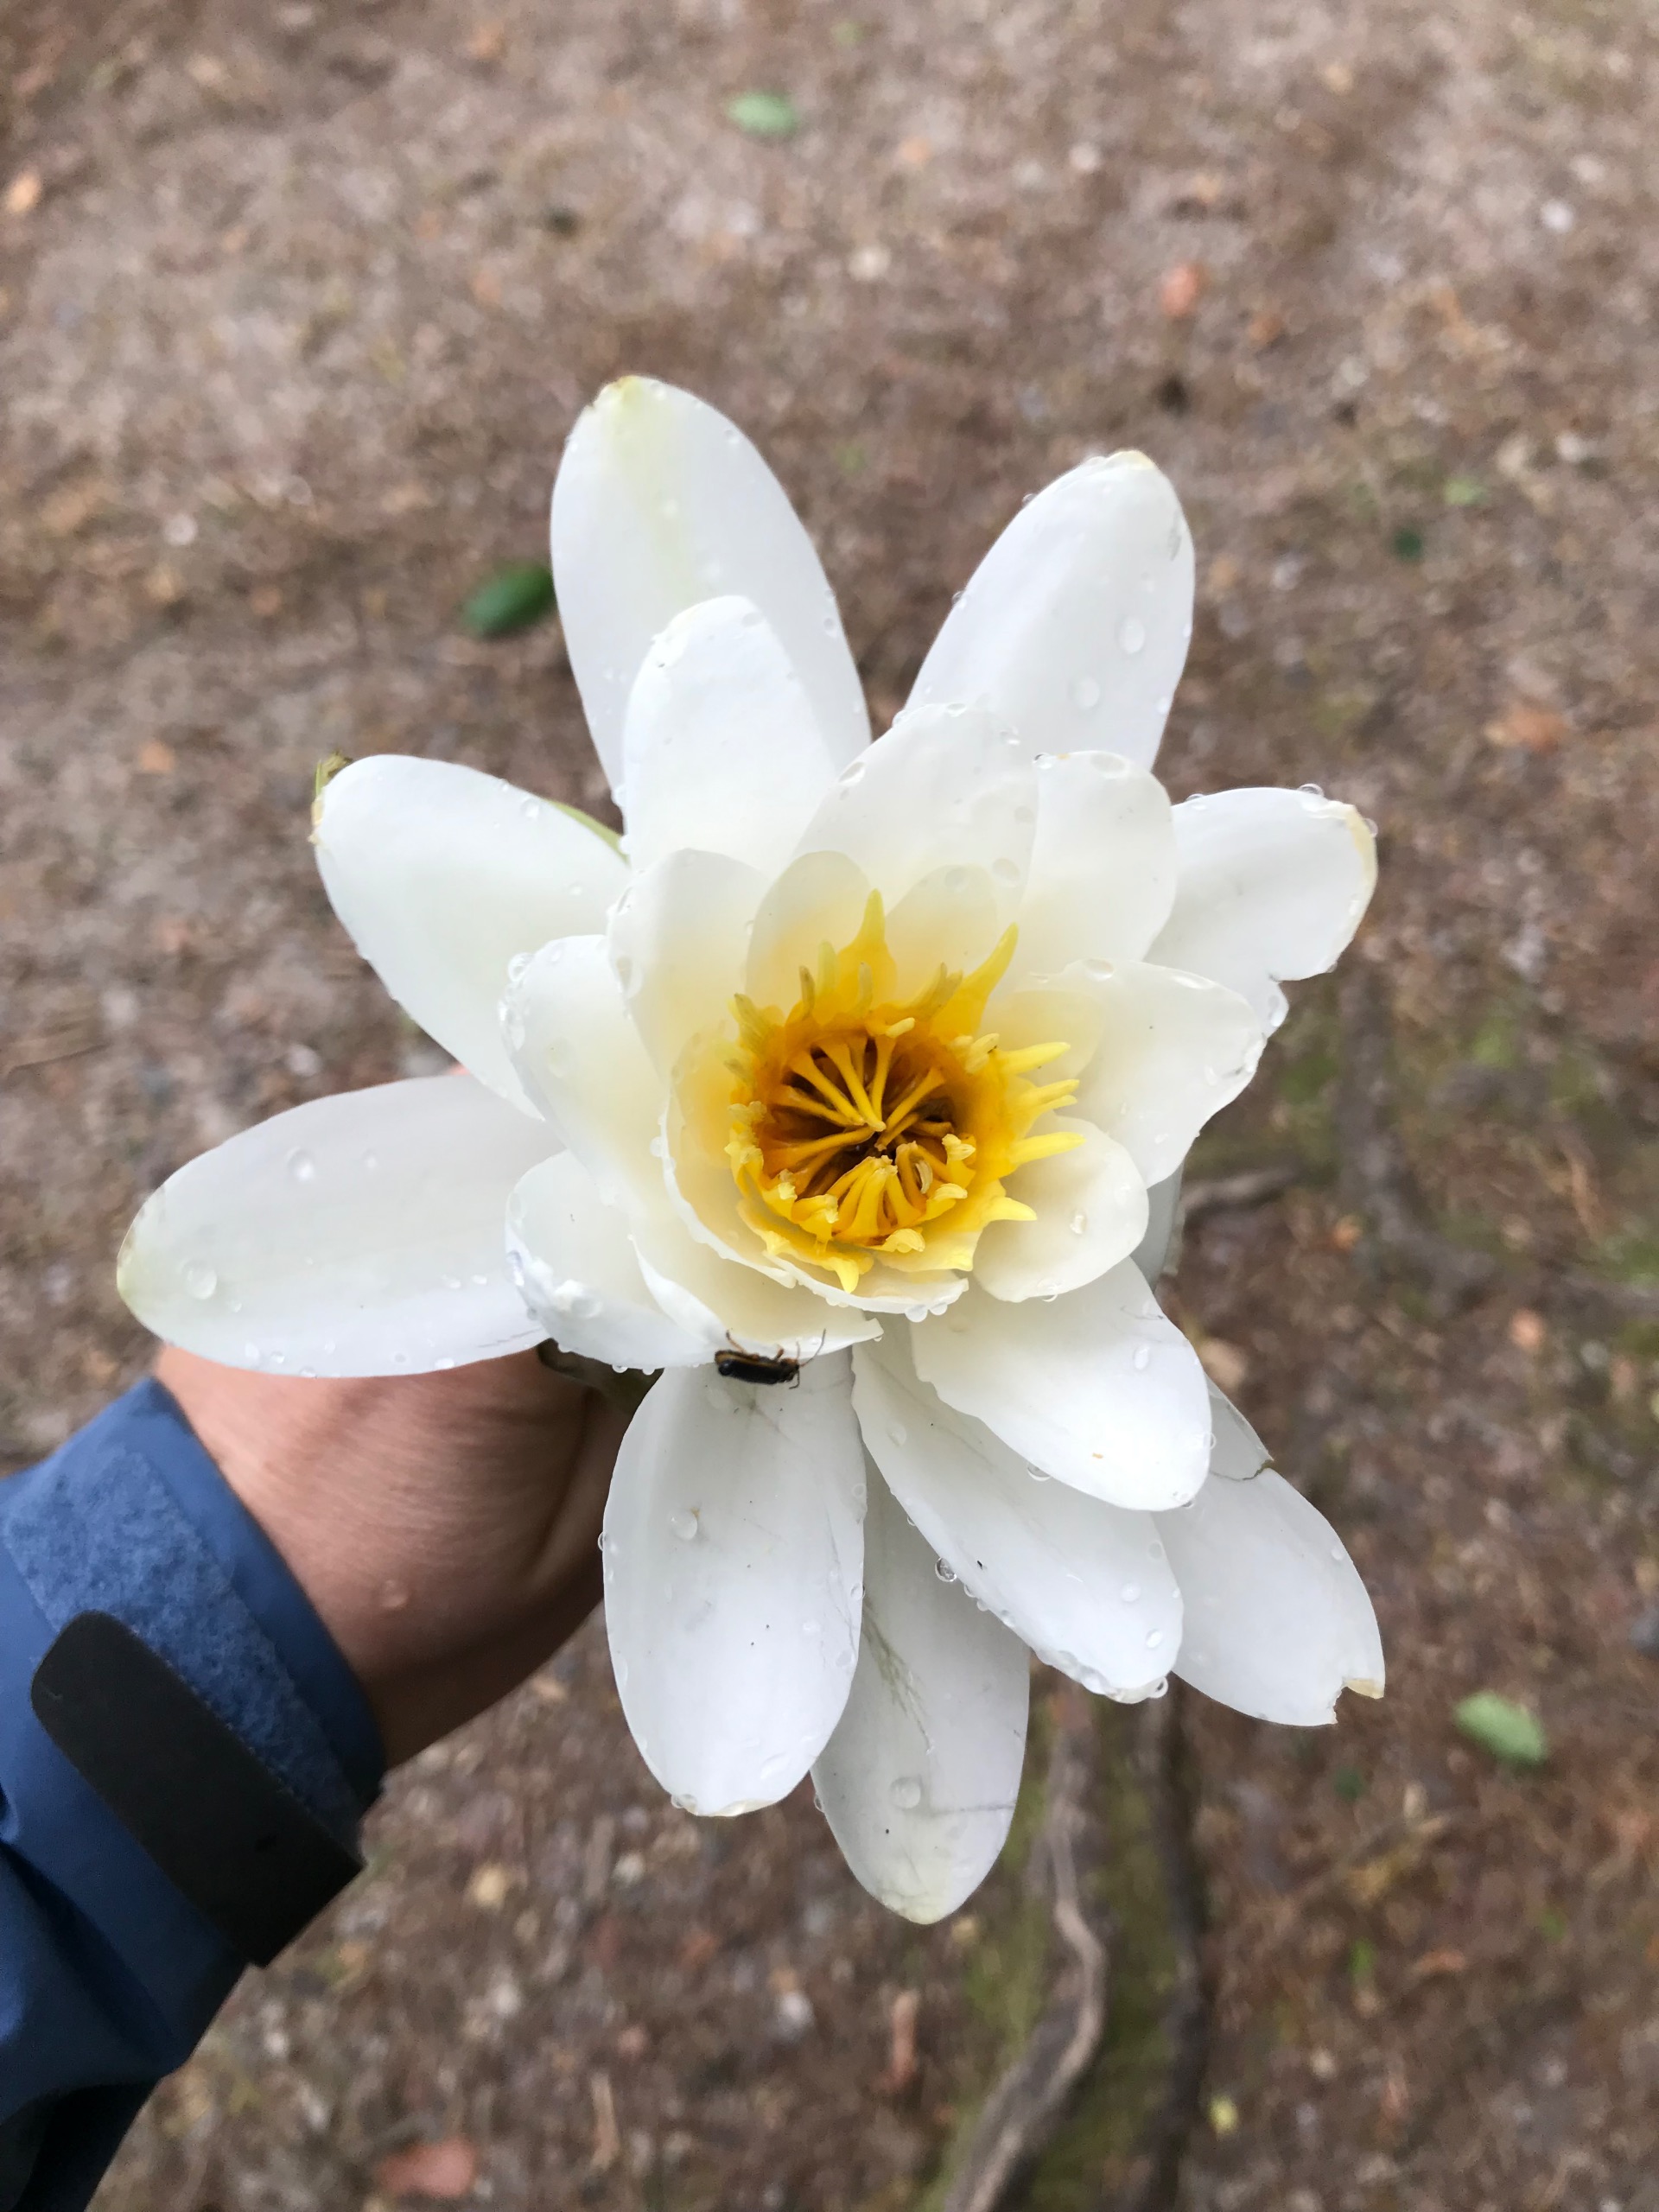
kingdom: Plantae
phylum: Tracheophyta
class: Magnoliopsida
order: Nymphaeales
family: Nymphaeaceae
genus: Nymphaea
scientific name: Nymphaea alba
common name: Hvid åkande
